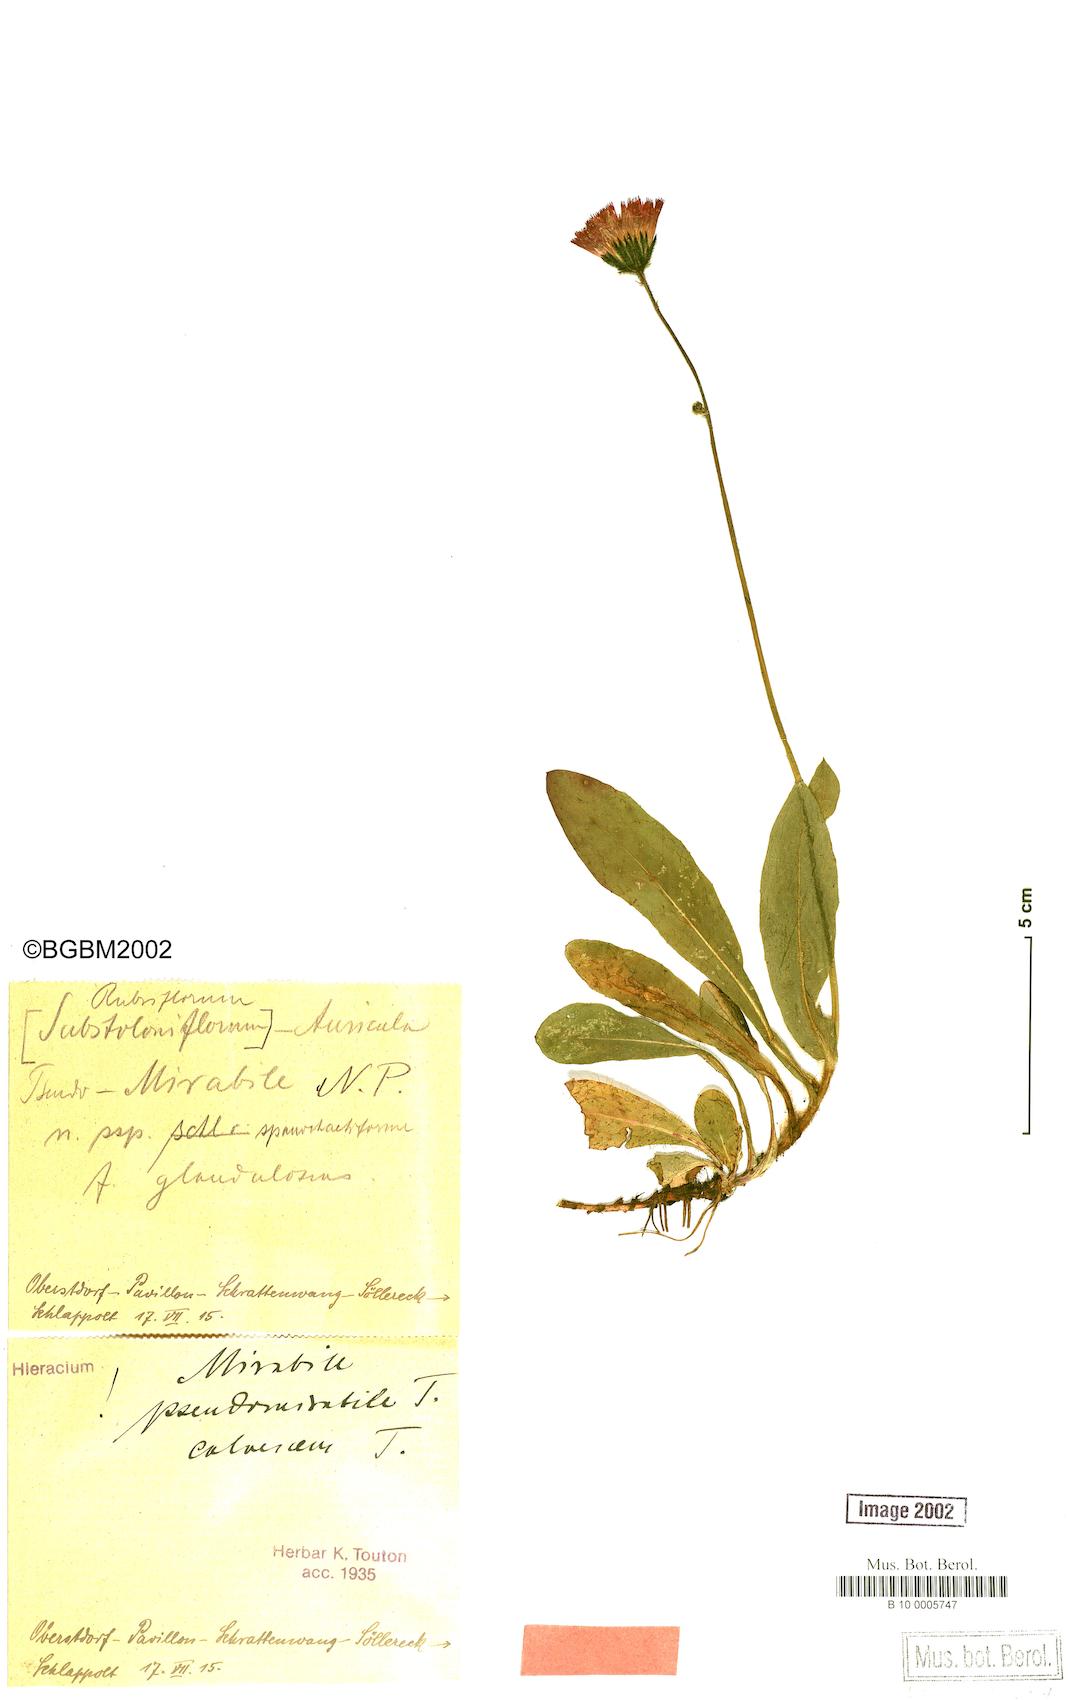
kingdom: Plantae
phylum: Tracheophyta
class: Magnoliopsida
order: Asterales
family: Asteraceae
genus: Pilosella
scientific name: Pilosella mirabilis
